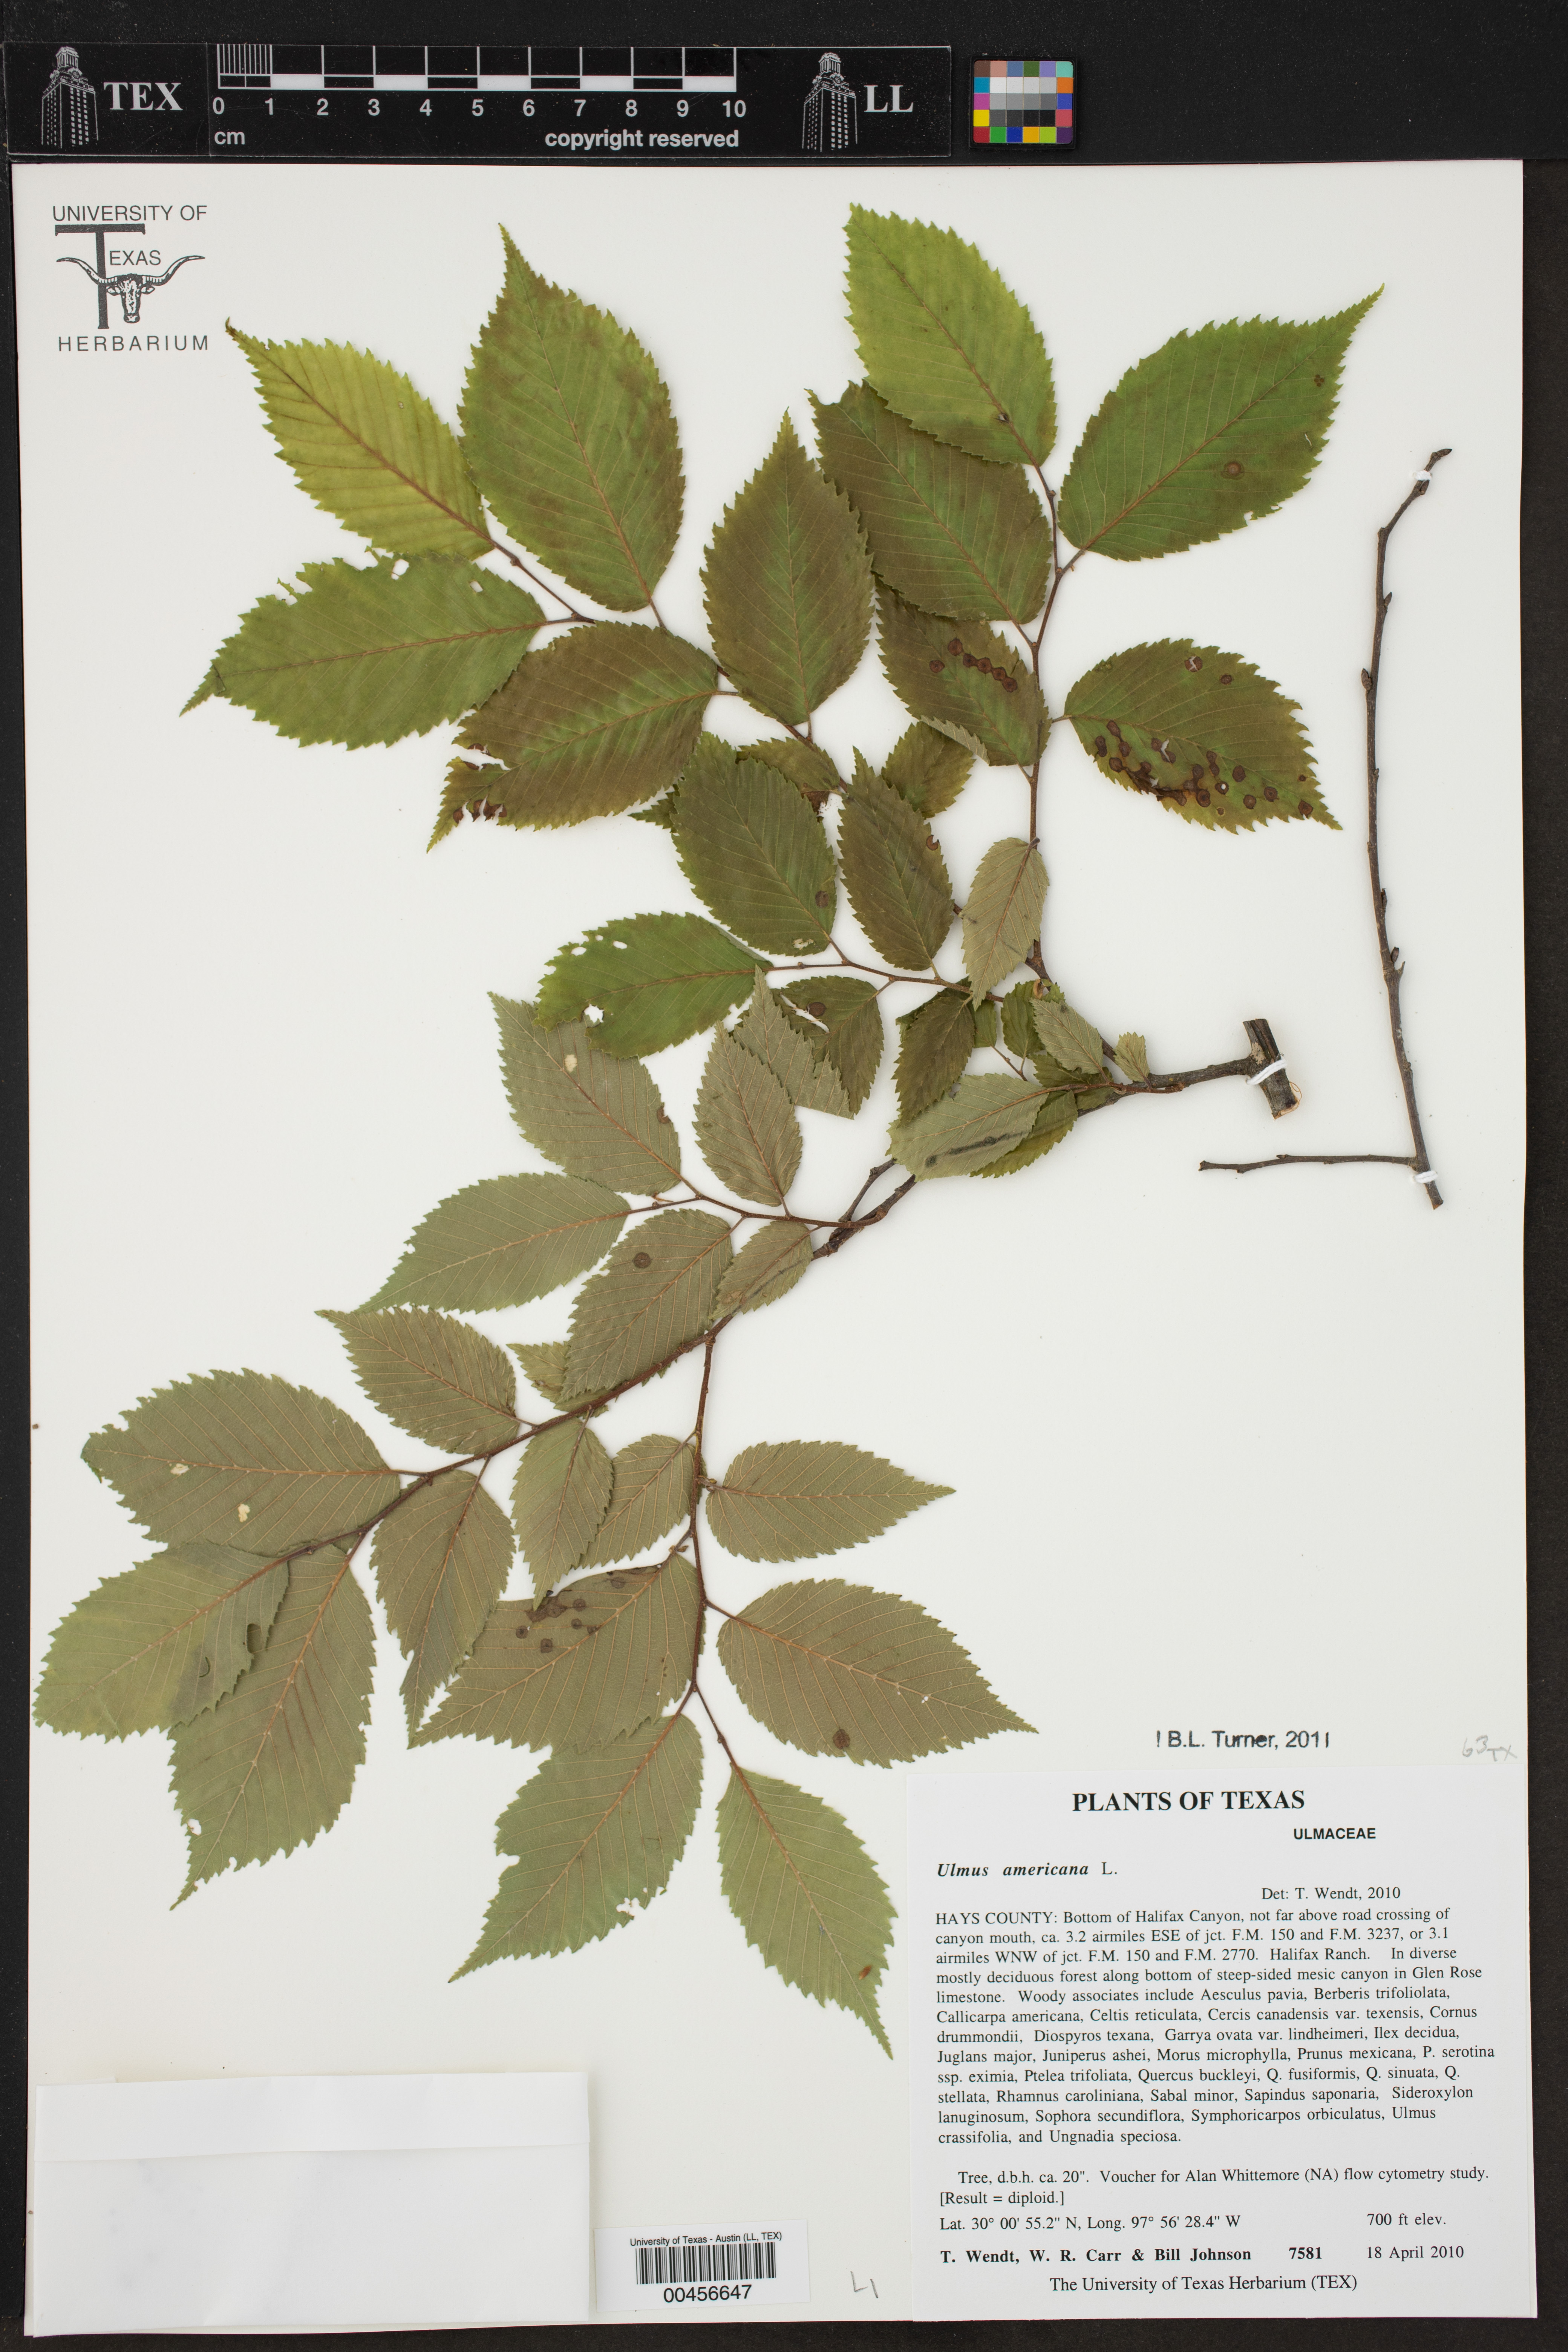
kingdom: Plantae
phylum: Tracheophyta
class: Magnoliopsida
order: Rosales
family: Ulmaceae
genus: Ulmus
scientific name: Ulmus americana
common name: American elm
